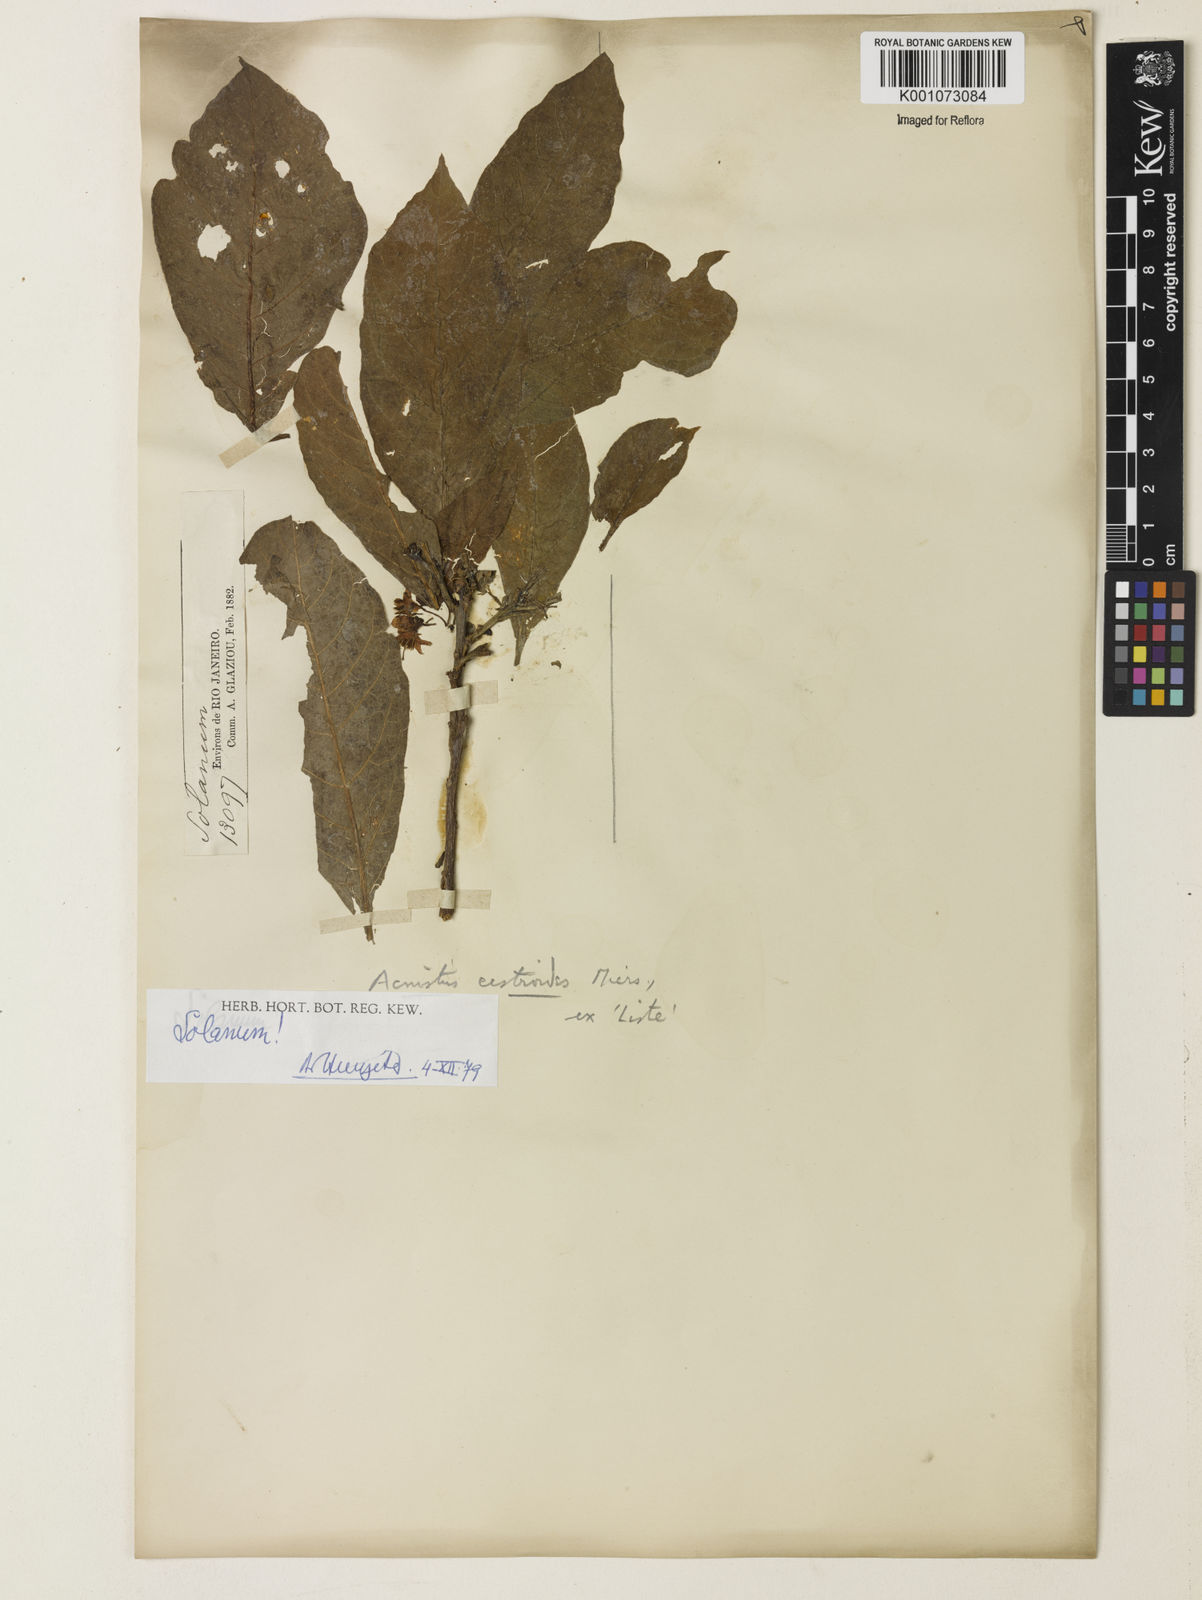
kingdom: Plantae
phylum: Tracheophyta
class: Magnoliopsida
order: Solanales
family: Solanaceae
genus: Lycium
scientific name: Lycium cestroides
